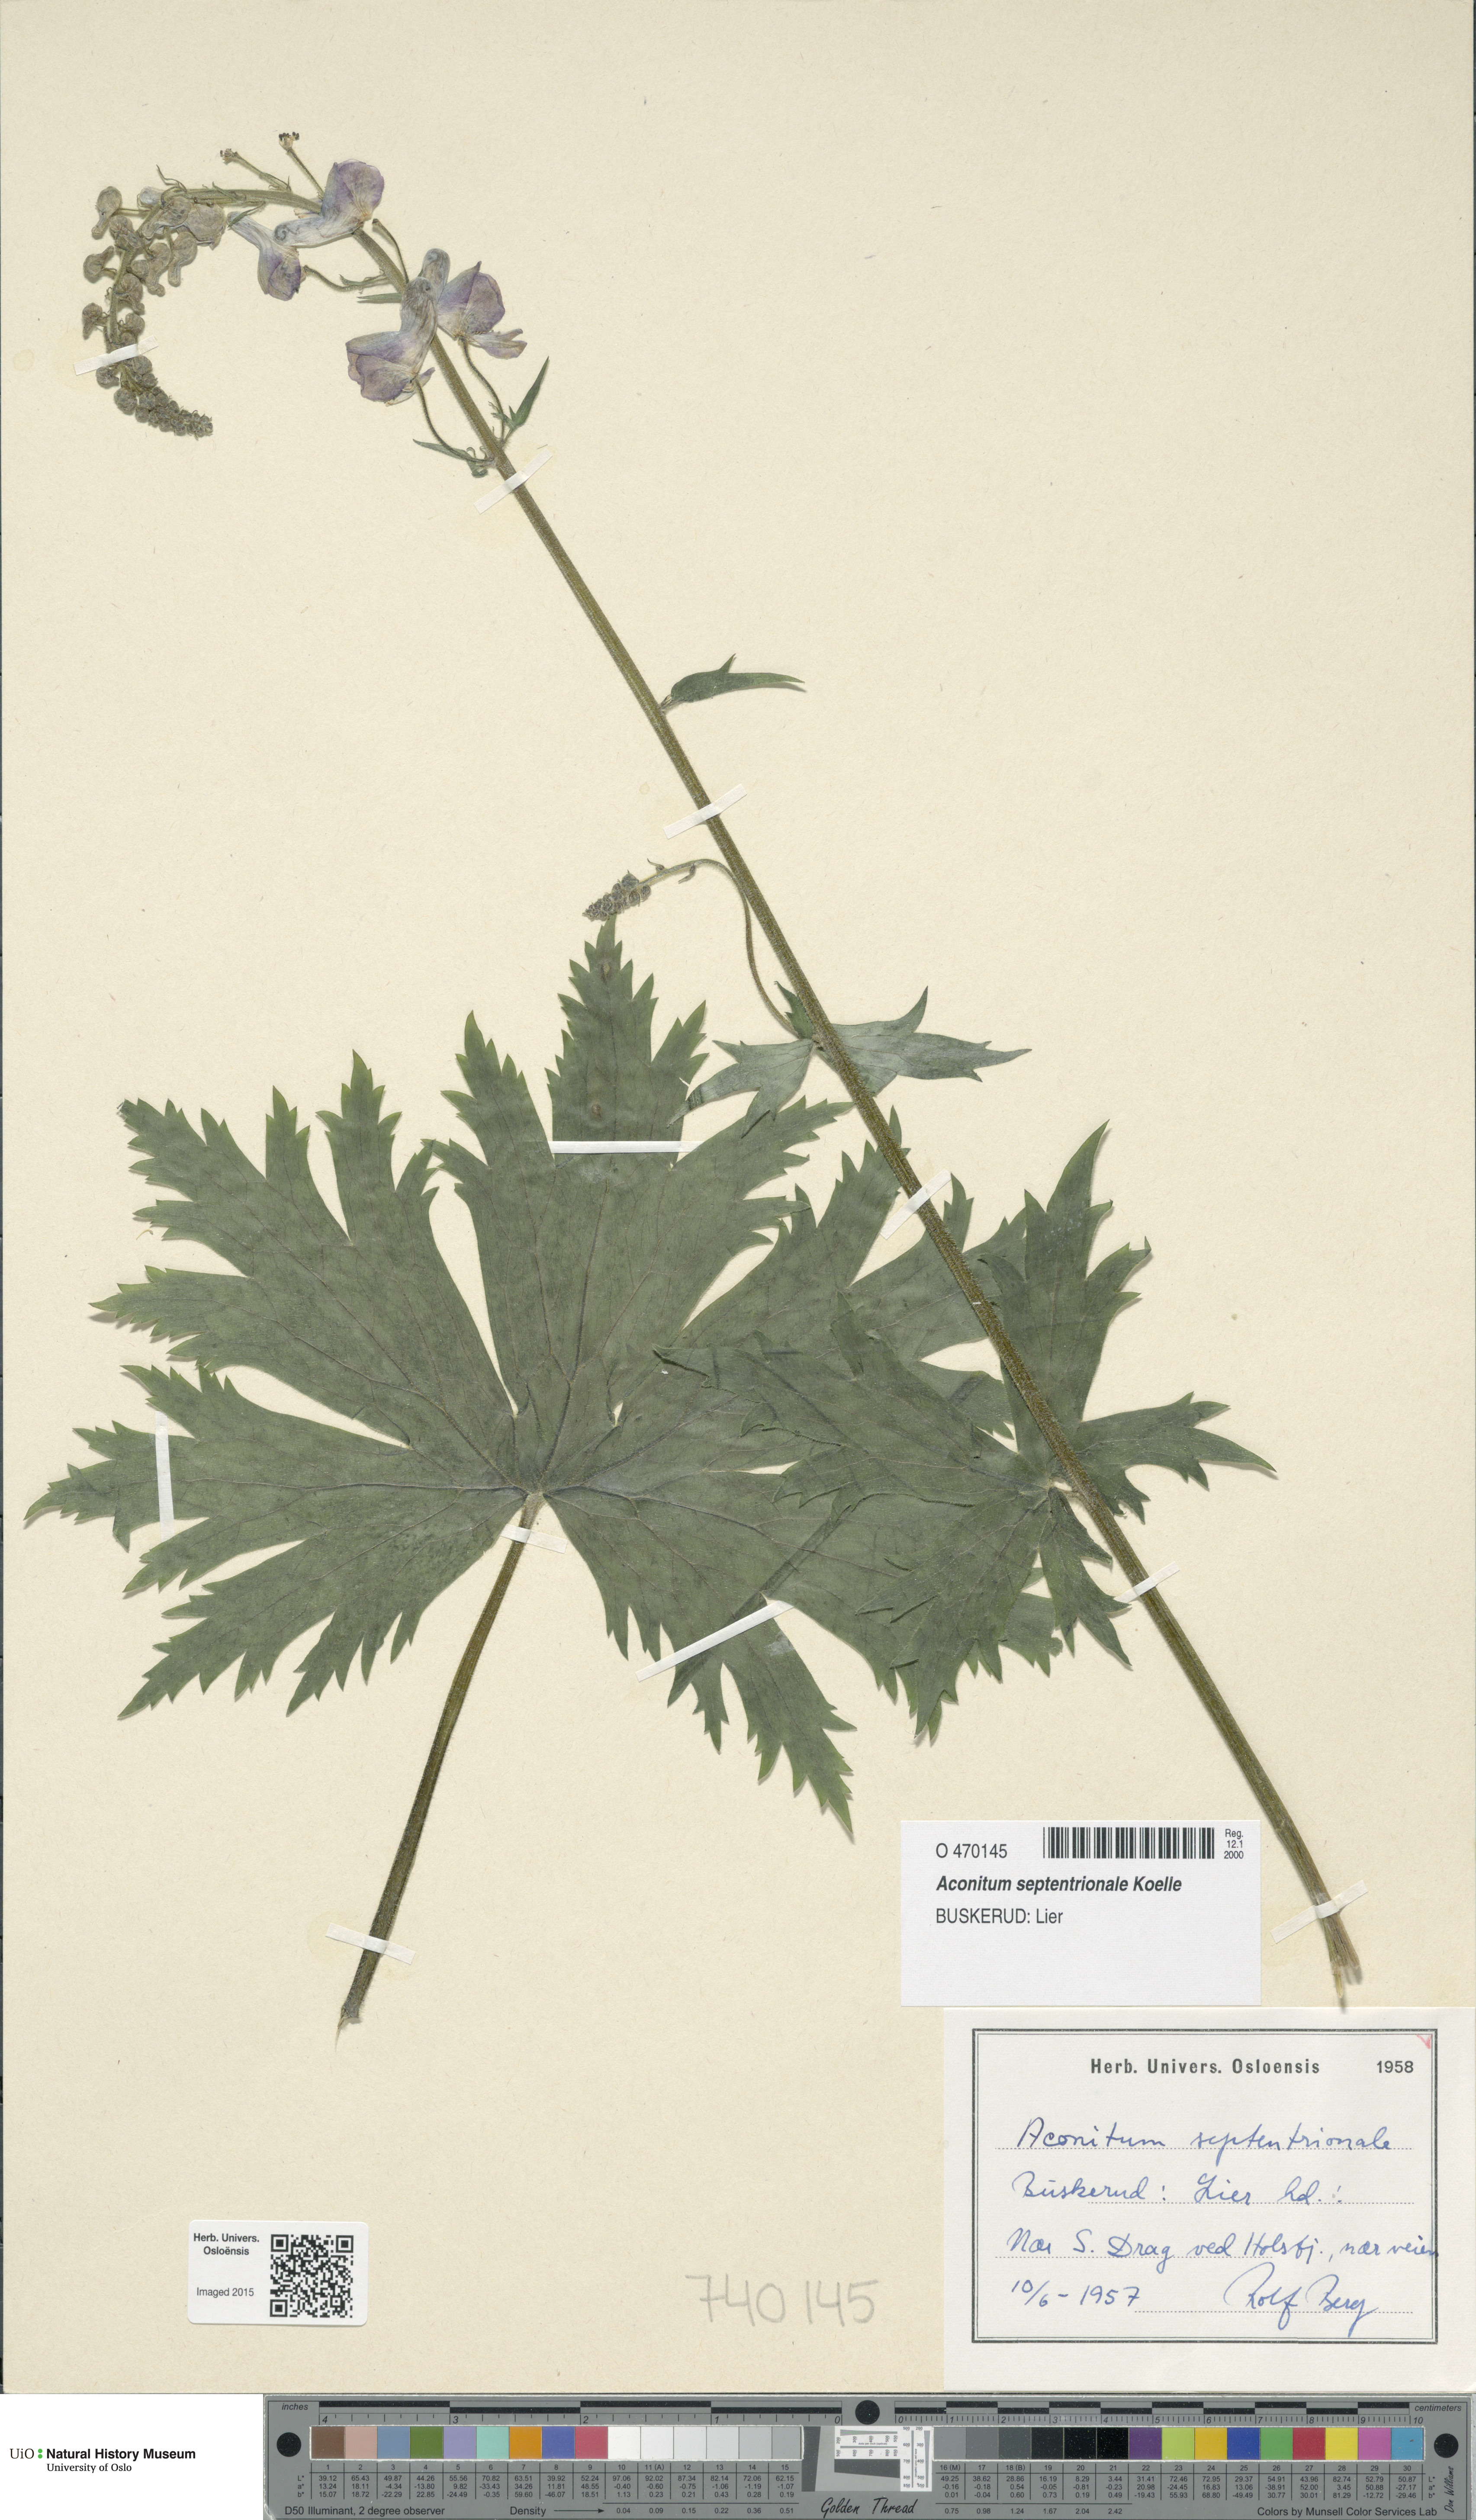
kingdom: Plantae
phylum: Tracheophyta
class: Magnoliopsida
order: Ranunculales
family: Ranunculaceae
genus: Aconitum
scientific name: Aconitum septentrionale
